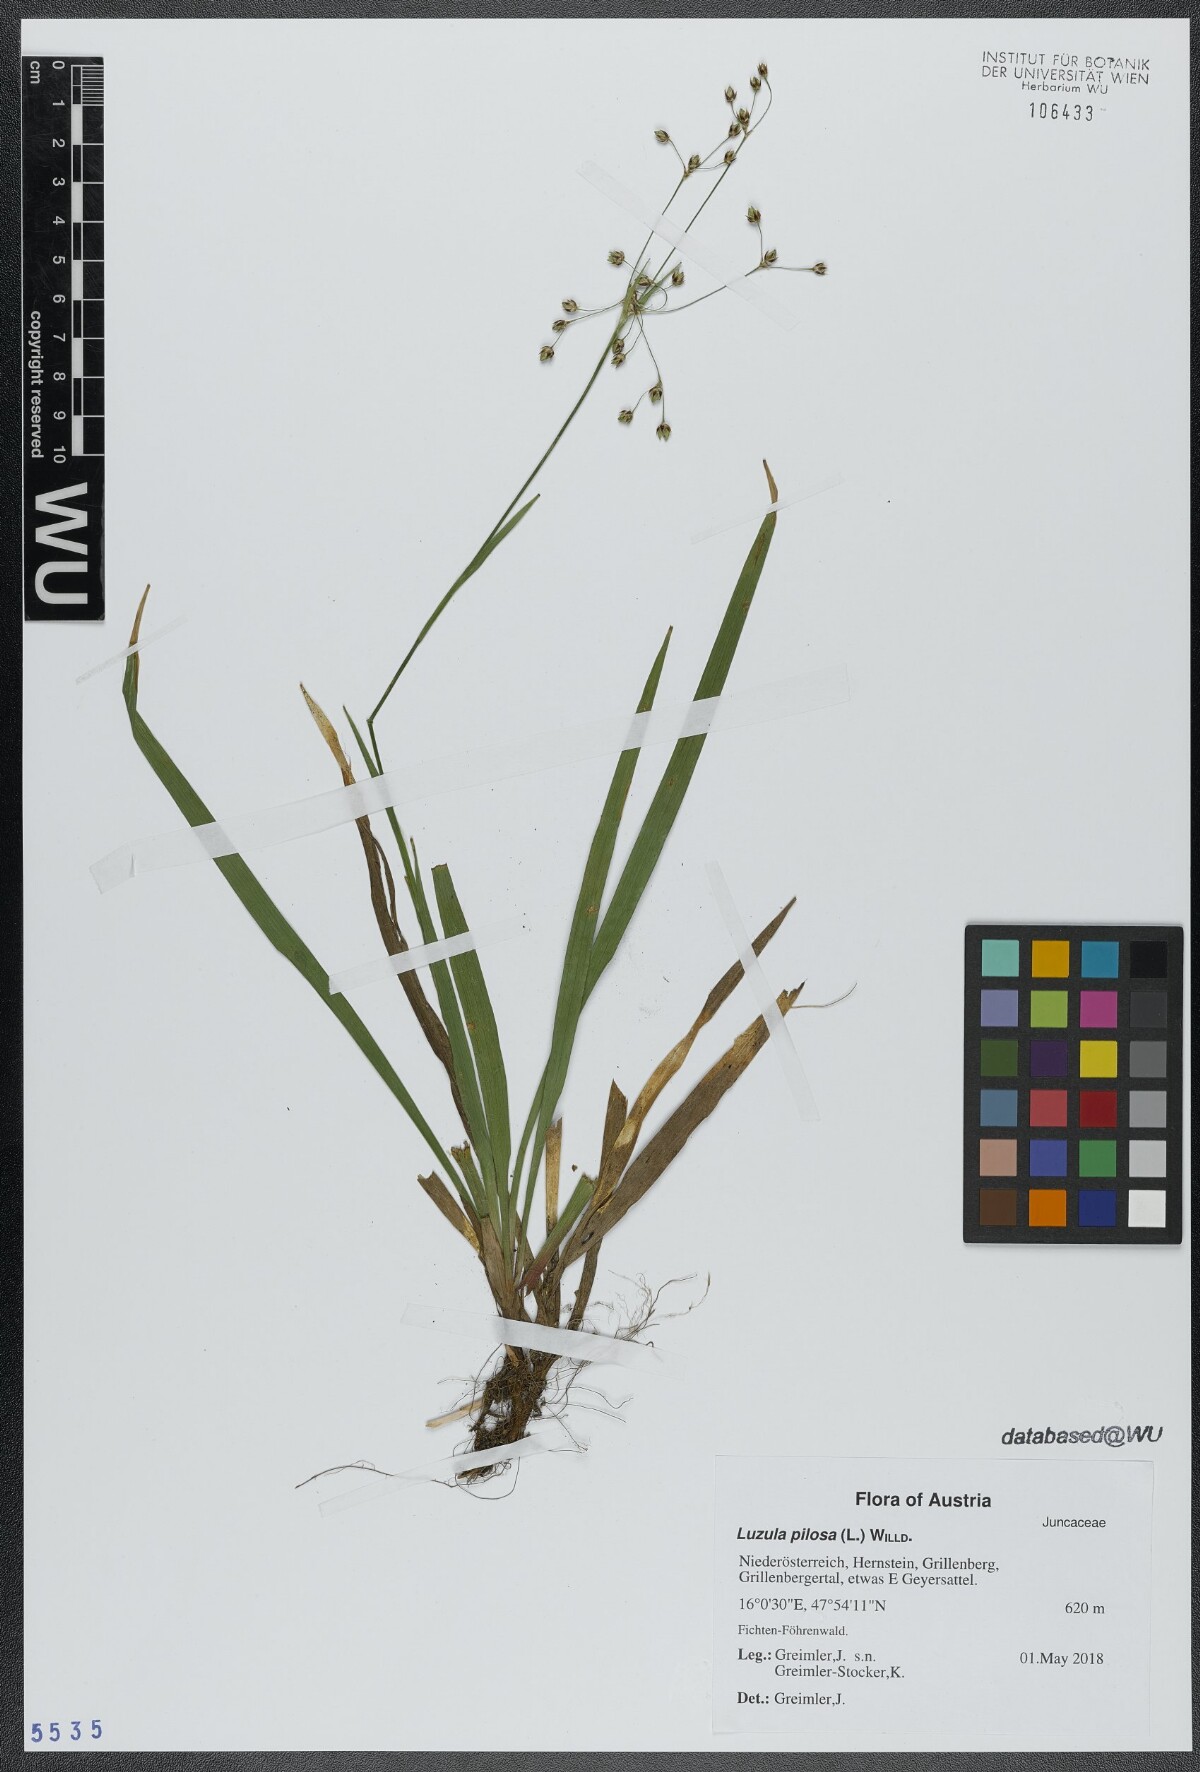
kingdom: Plantae
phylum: Tracheophyta
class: Liliopsida
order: Poales
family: Juncaceae
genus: Luzula
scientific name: Luzula pilosa
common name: Hairy wood-rush
